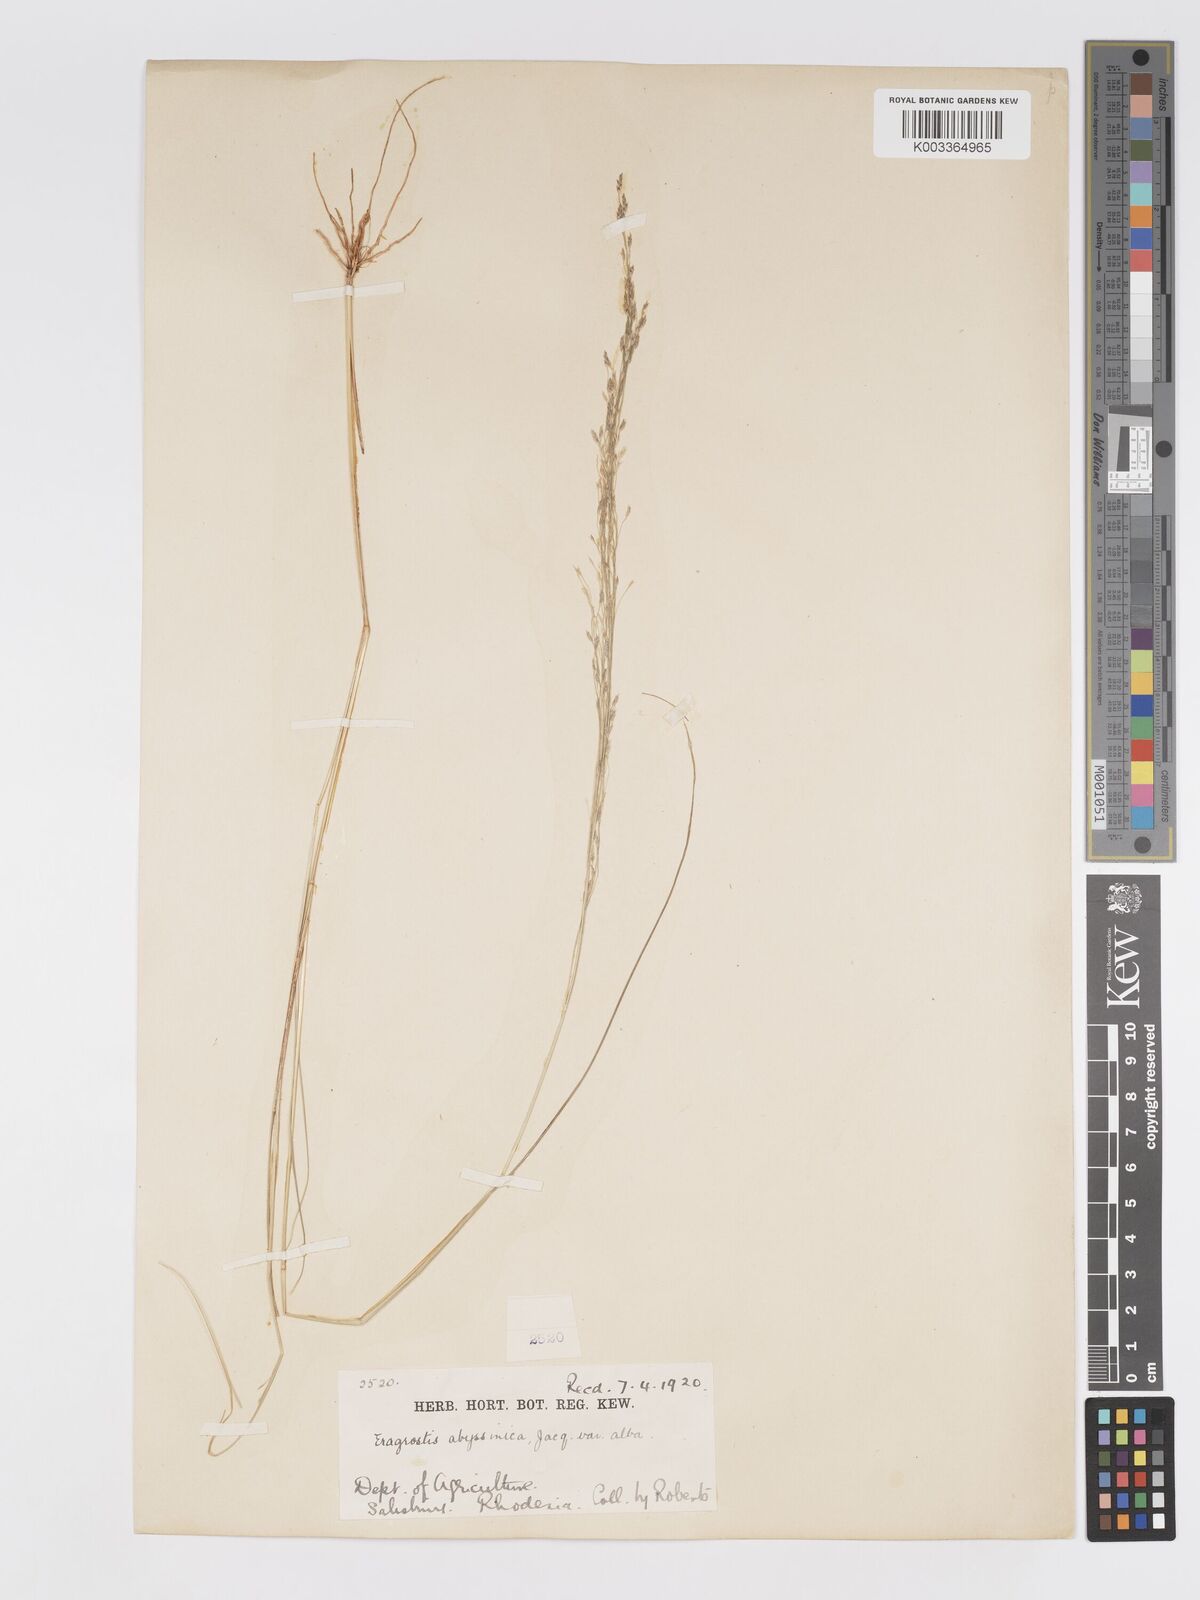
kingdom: Plantae
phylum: Tracheophyta
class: Liliopsida
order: Poales
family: Poaceae
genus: Eragrostis
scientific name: Eragrostis tef
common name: Teff
